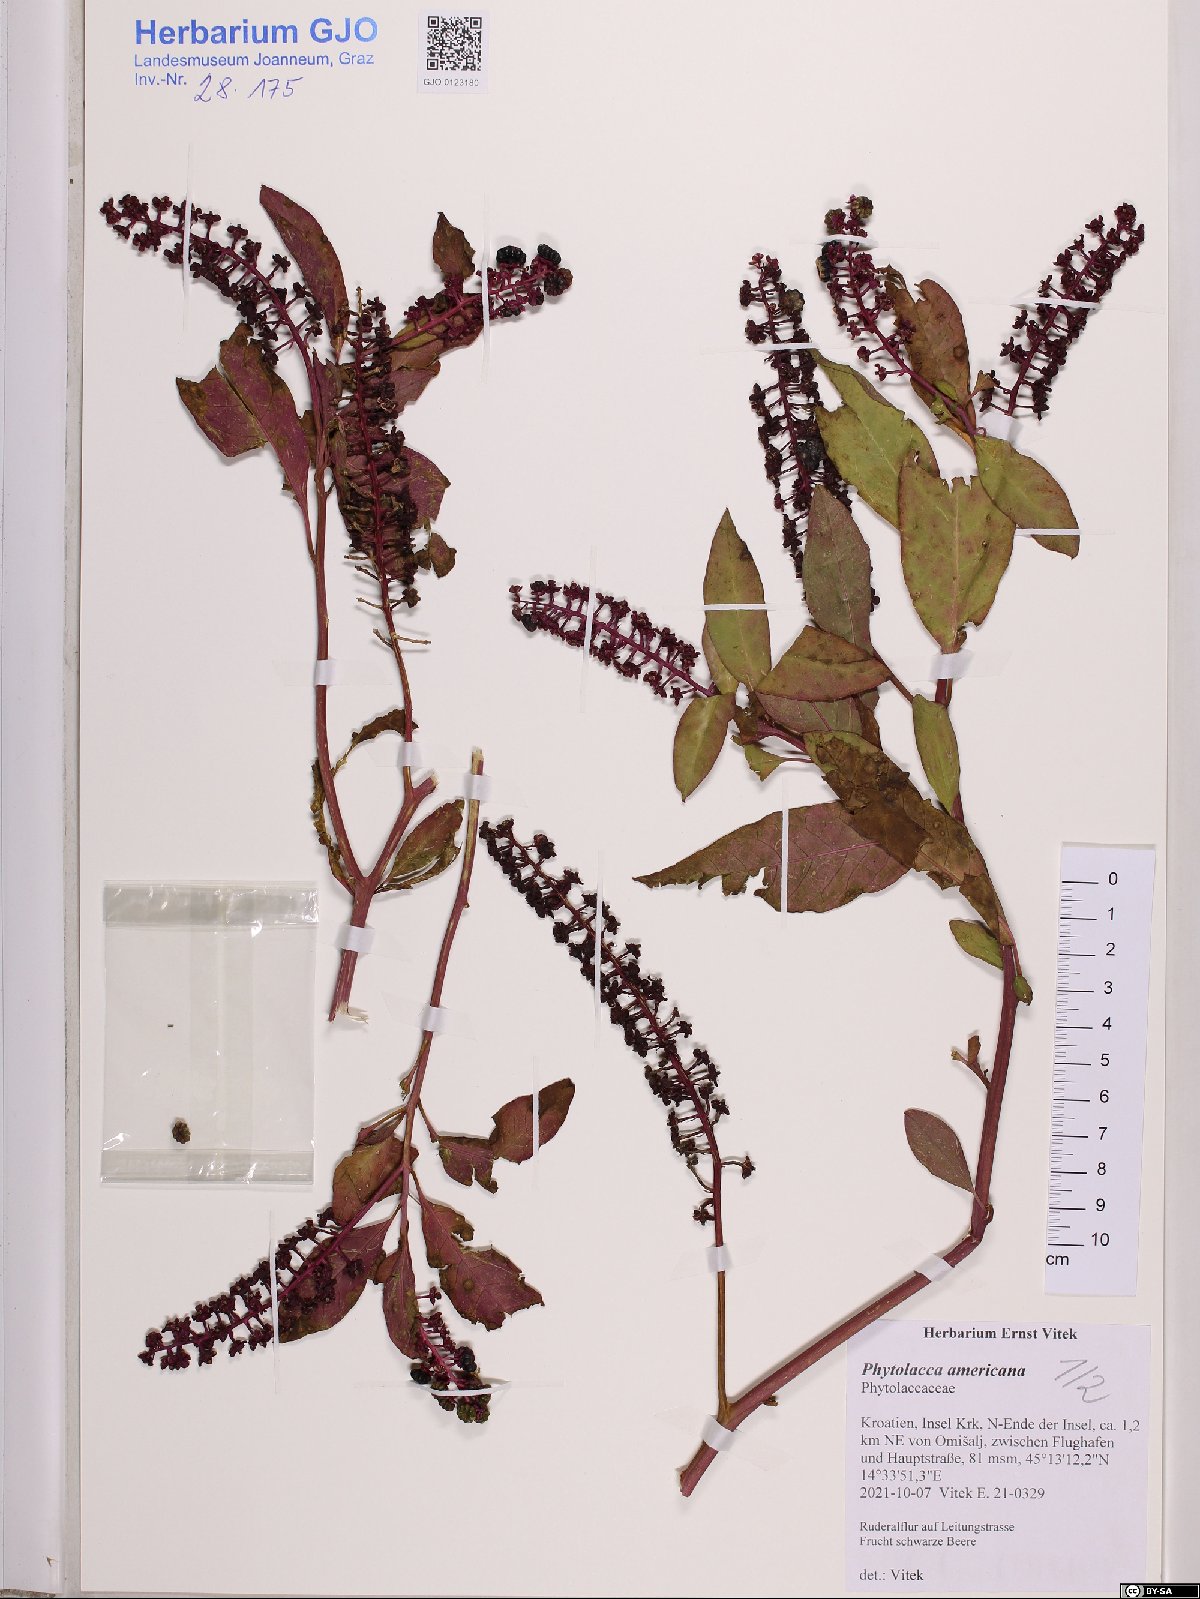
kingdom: Plantae
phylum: Tracheophyta
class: Magnoliopsida
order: Caryophyllales
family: Phytolaccaceae
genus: Phytolacca
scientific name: Phytolacca americana
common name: American pokeweed
